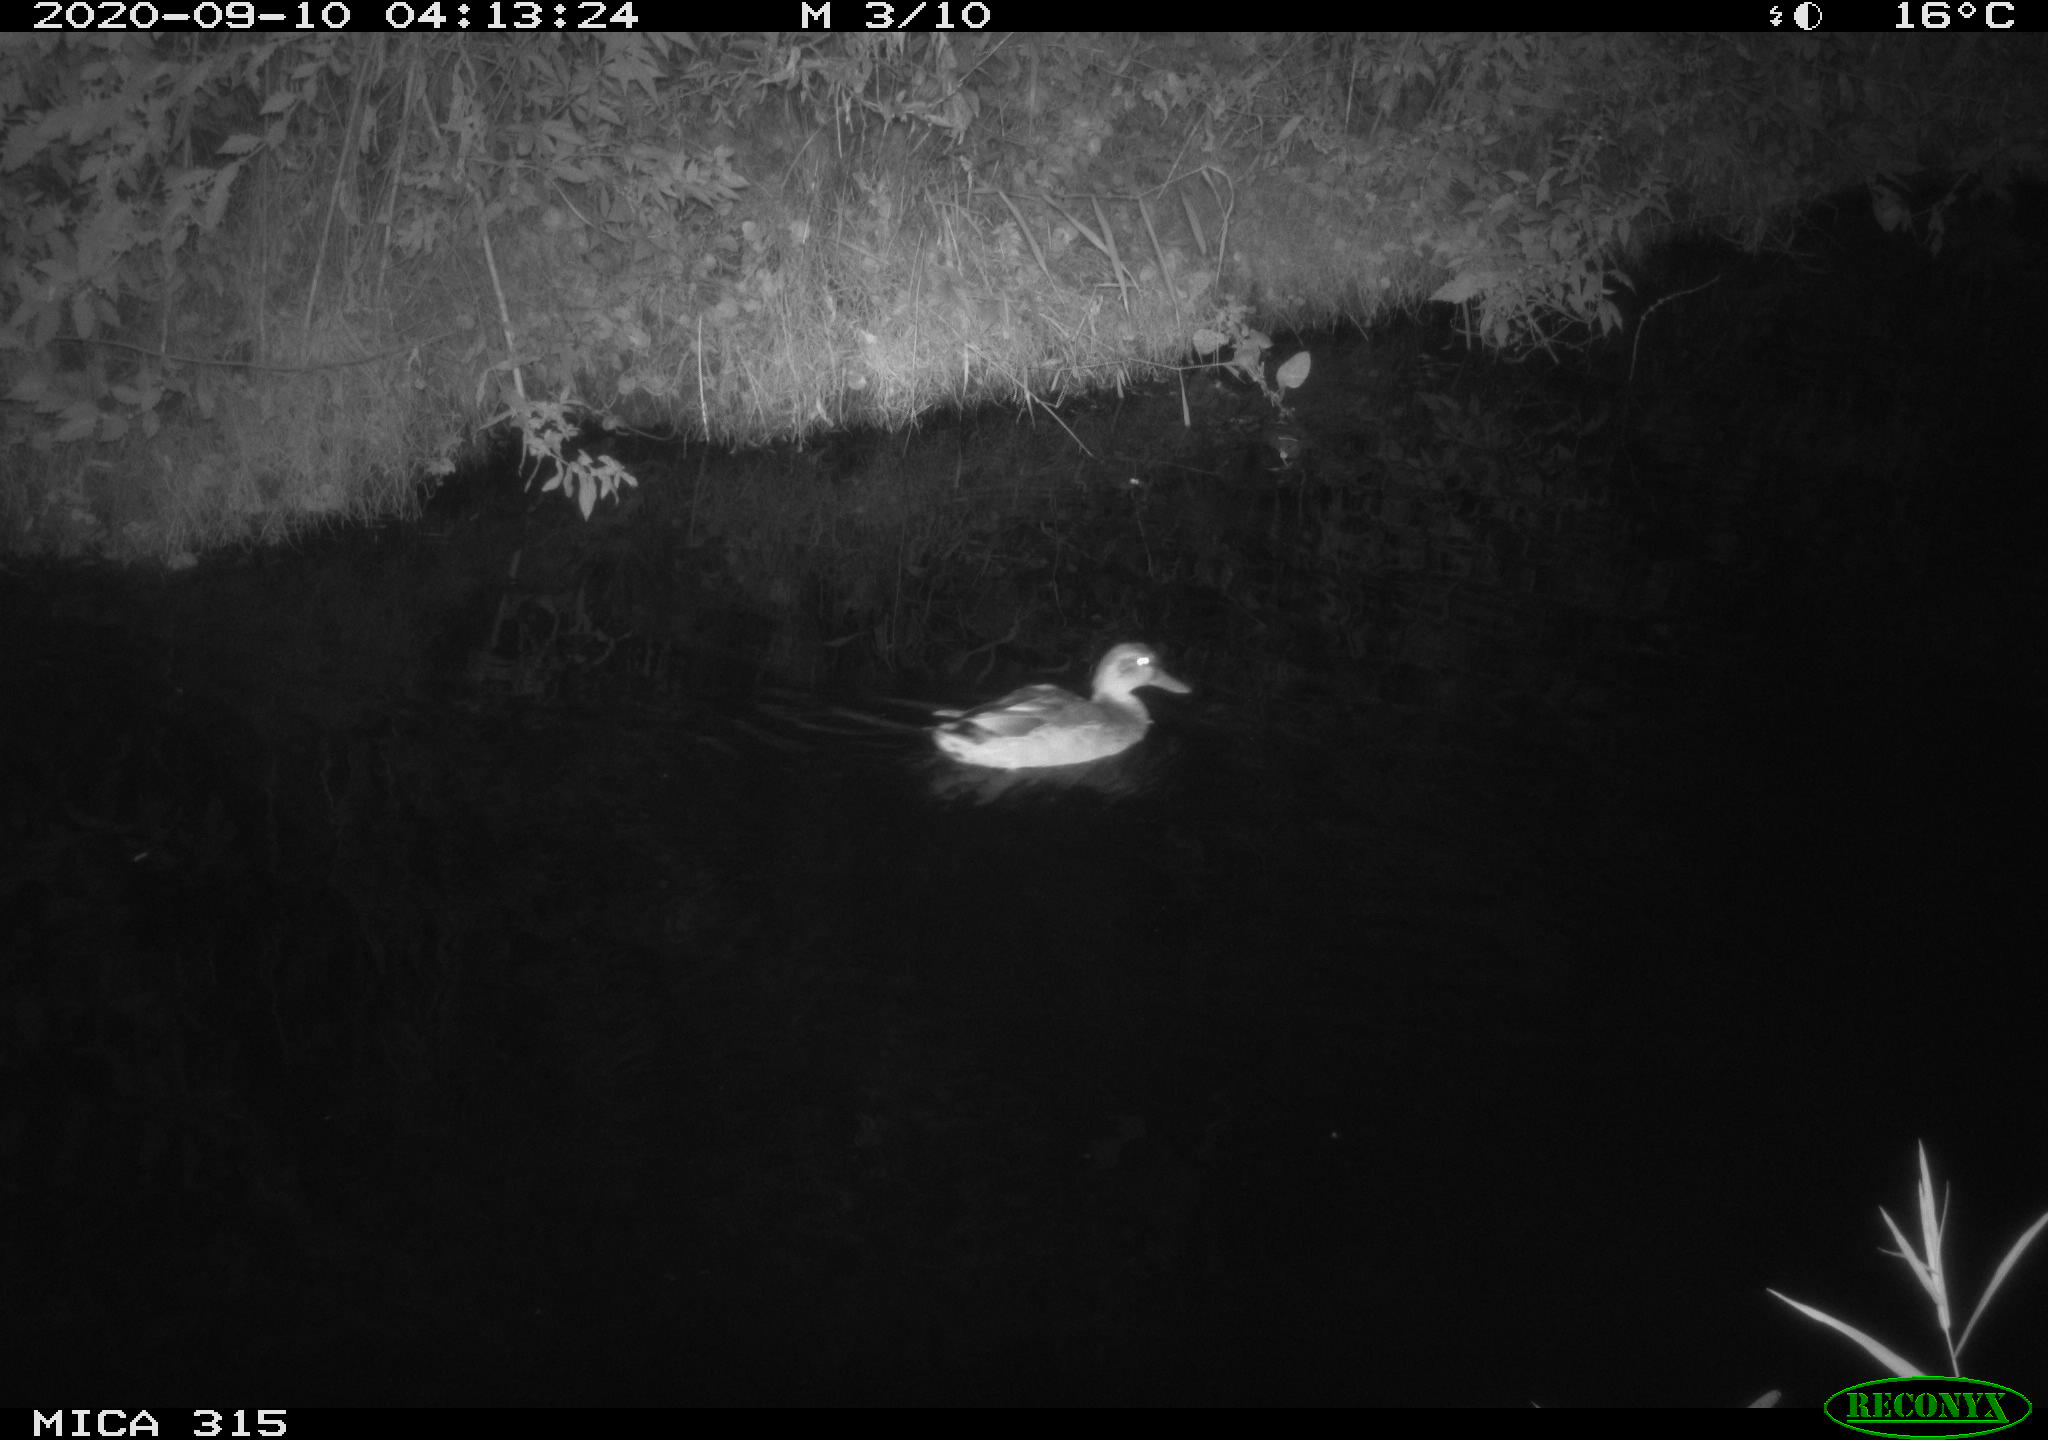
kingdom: Animalia
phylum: Chordata
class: Aves
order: Anseriformes
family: Anatidae
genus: Anas
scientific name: Anas platyrhynchos
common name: Mallard
